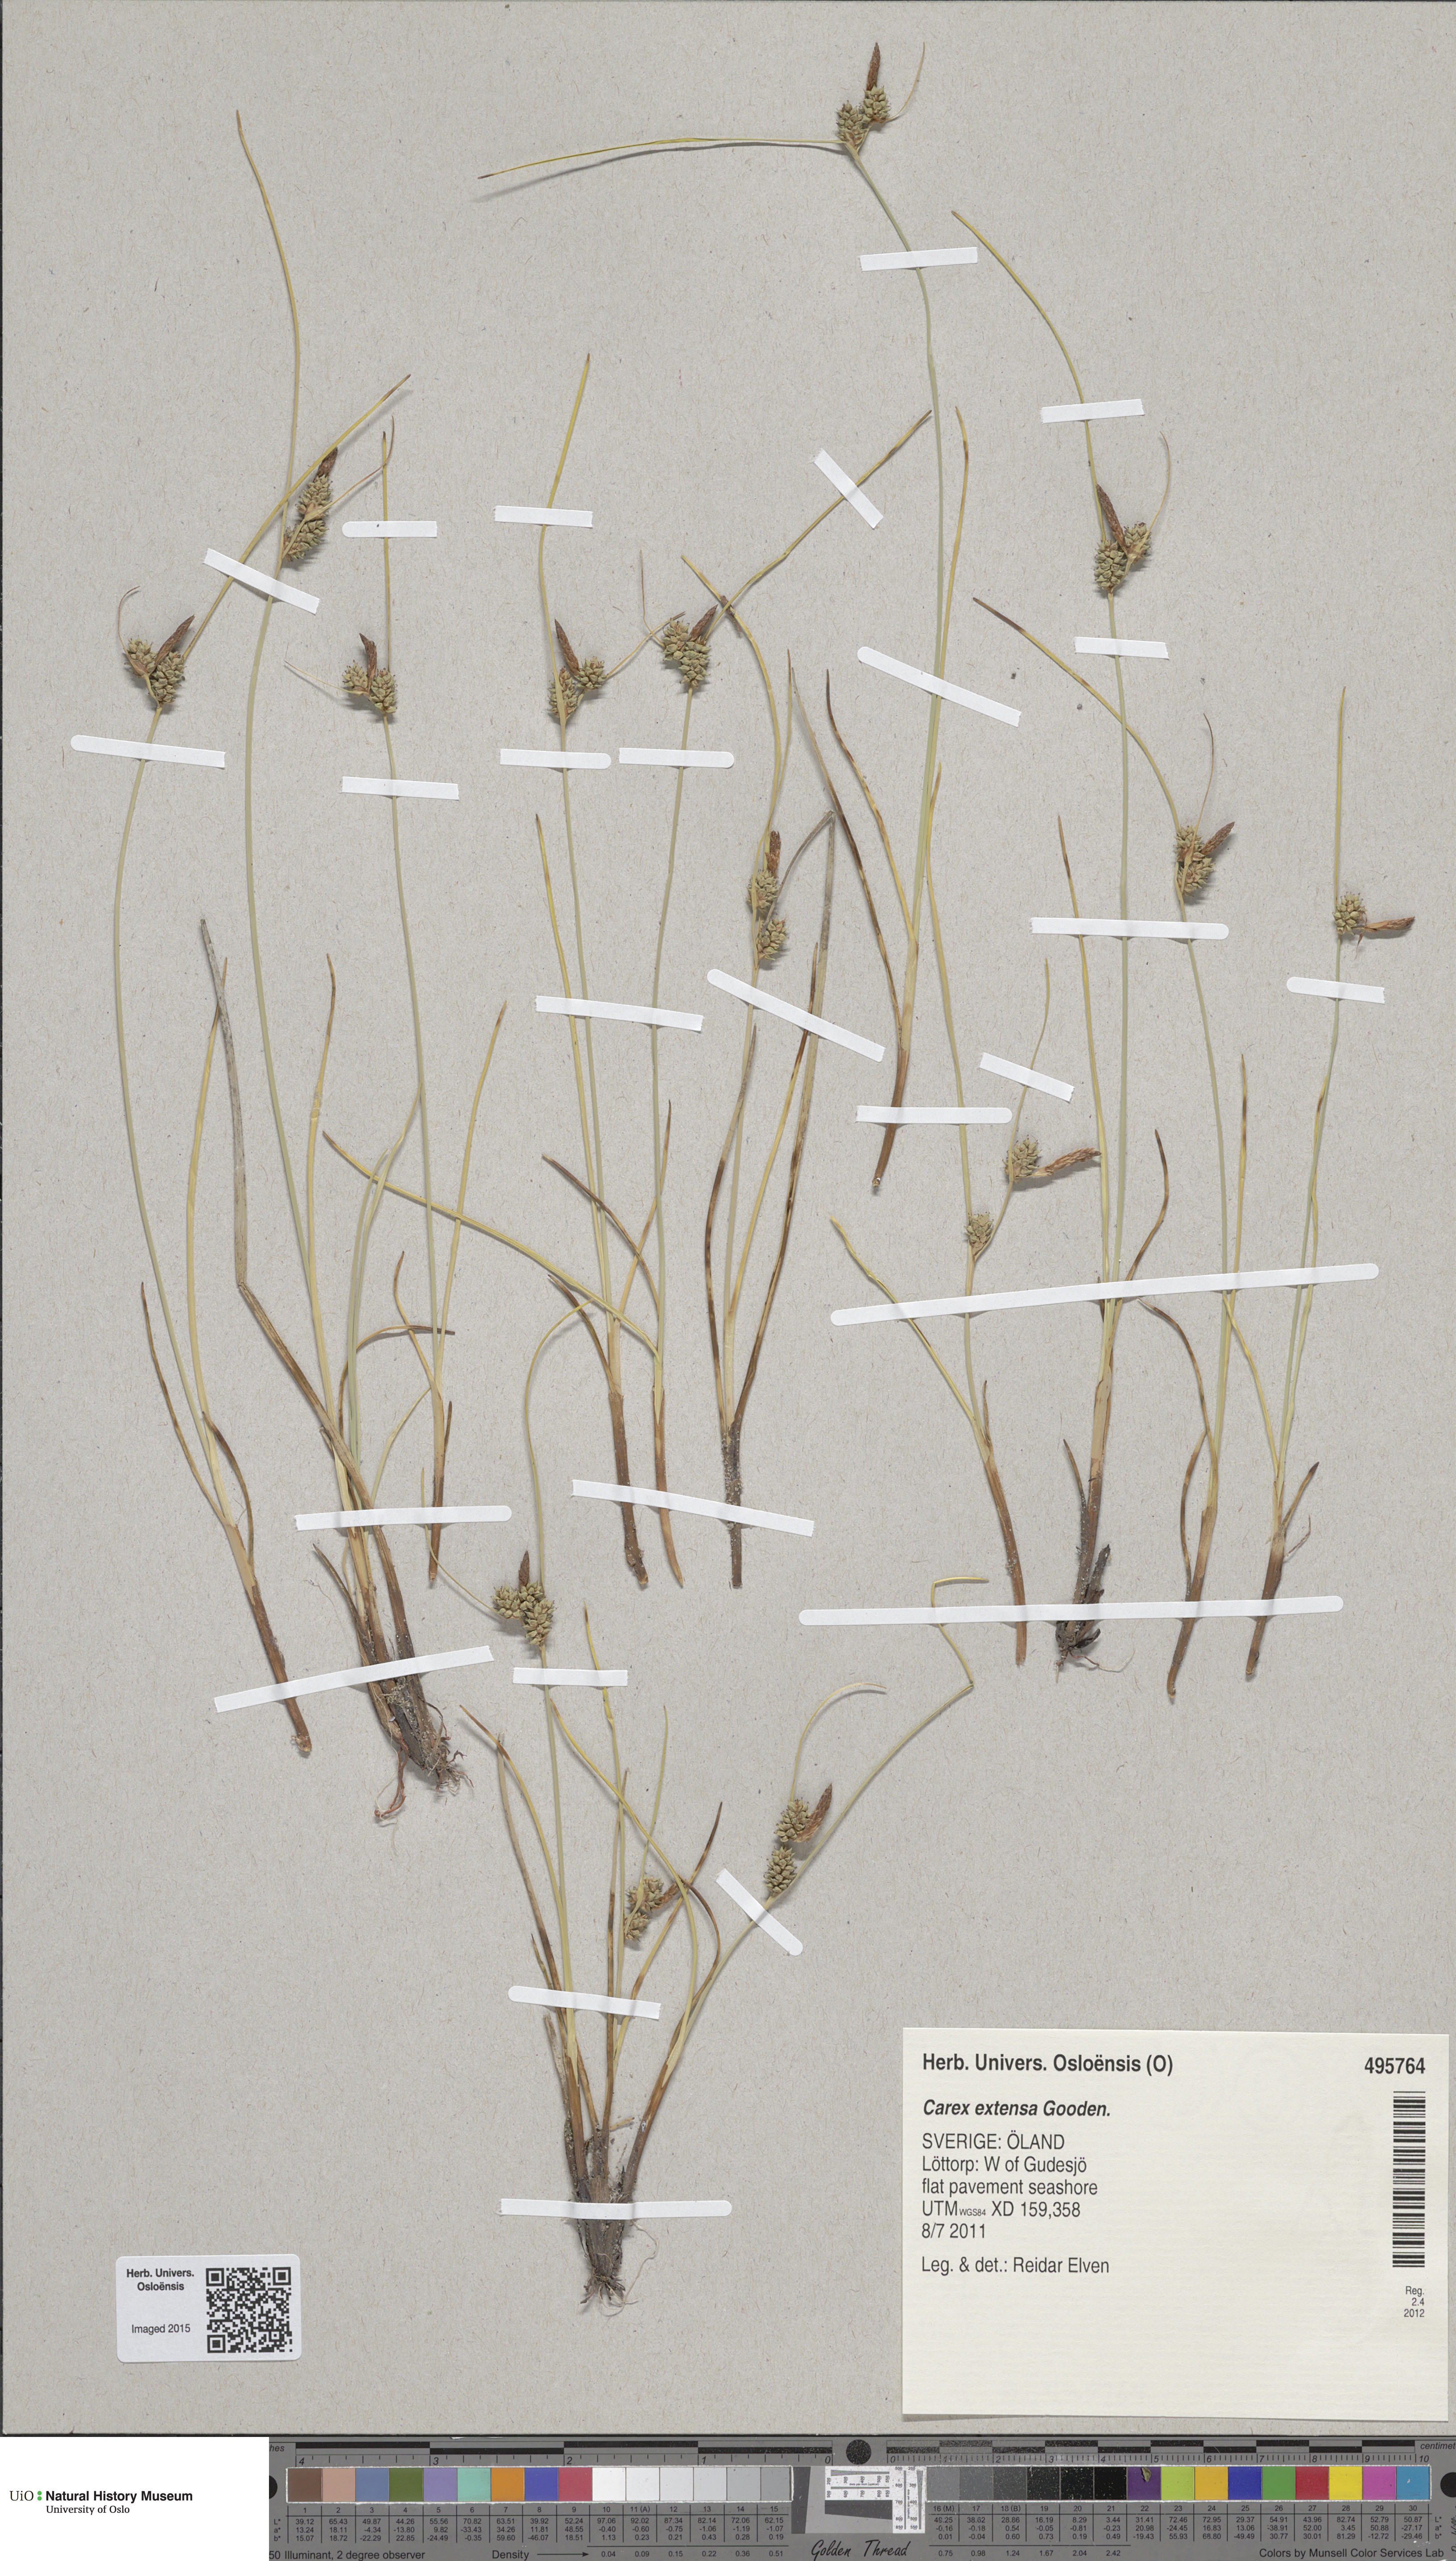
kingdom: Plantae
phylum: Tracheophyta
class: Liliopsida
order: Poales
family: Cyperaceae
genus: Carex
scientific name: Carex extensa
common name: Long-bracted sedge
